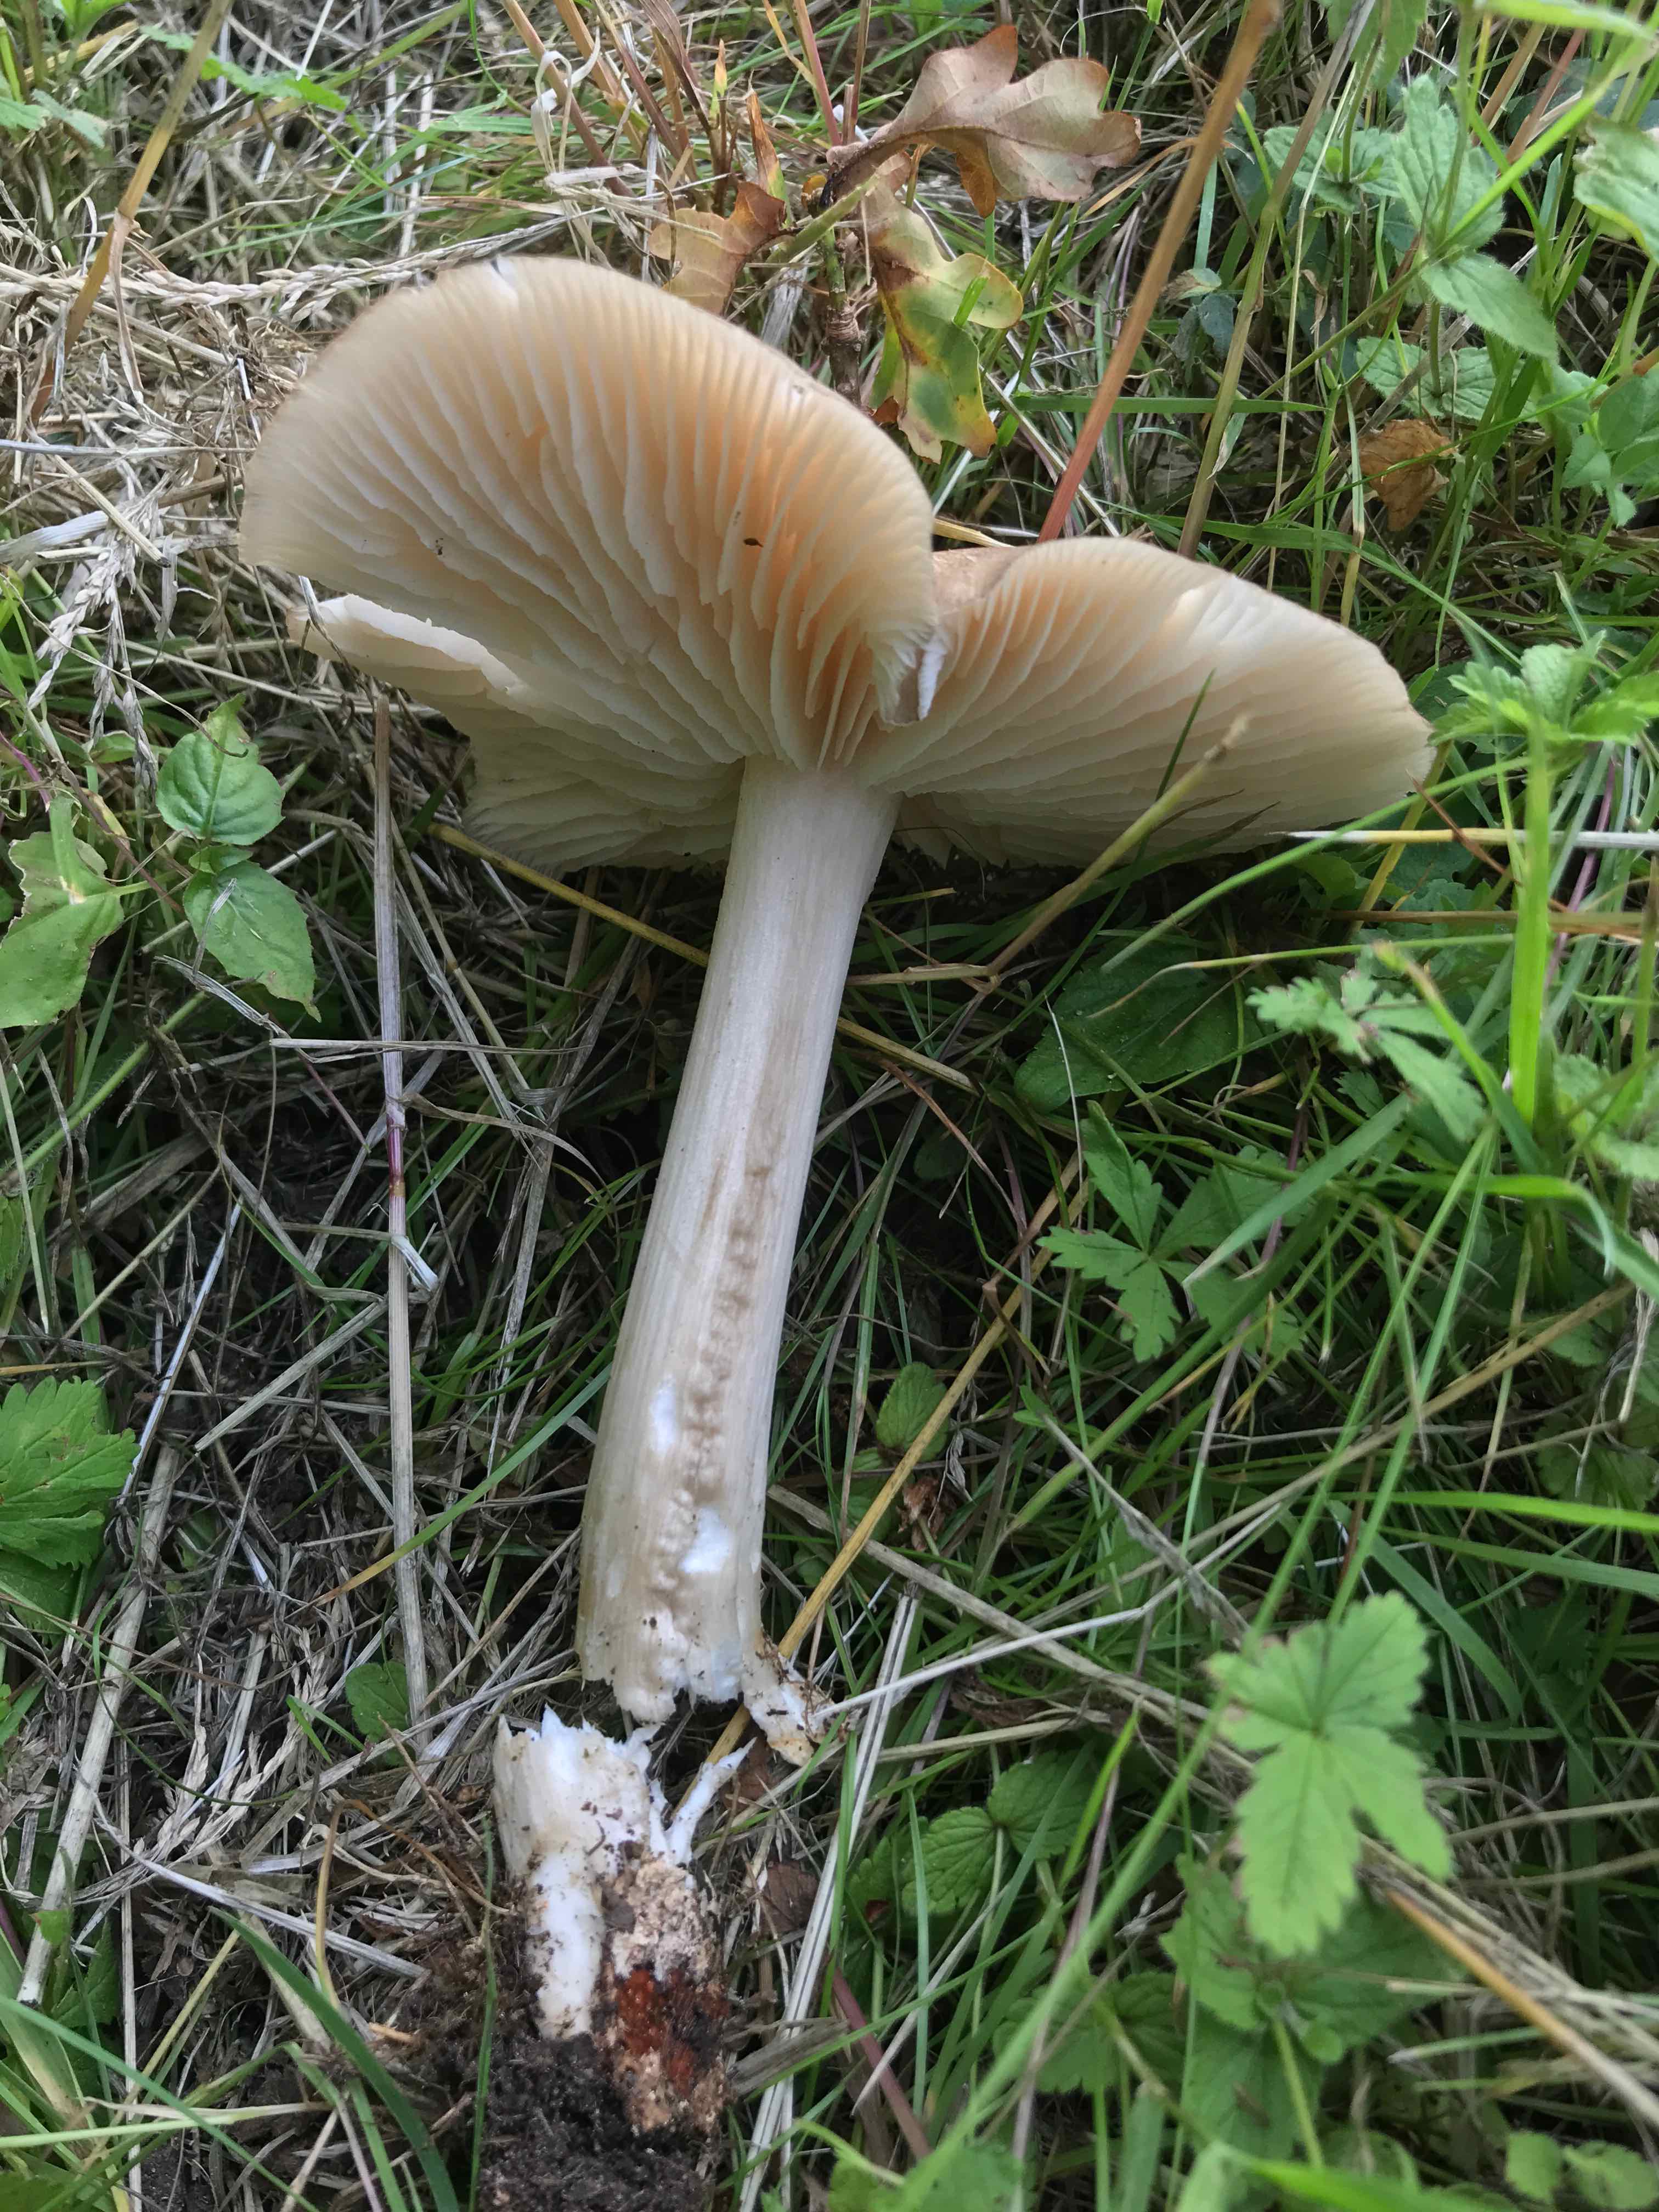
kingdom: Fungi
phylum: Basidiomycota
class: Agaricomycetes
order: Agaricales
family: Tricholomataceae
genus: Megacollybia
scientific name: Megacollybia platyphylla
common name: bredbladet væbnerhat
